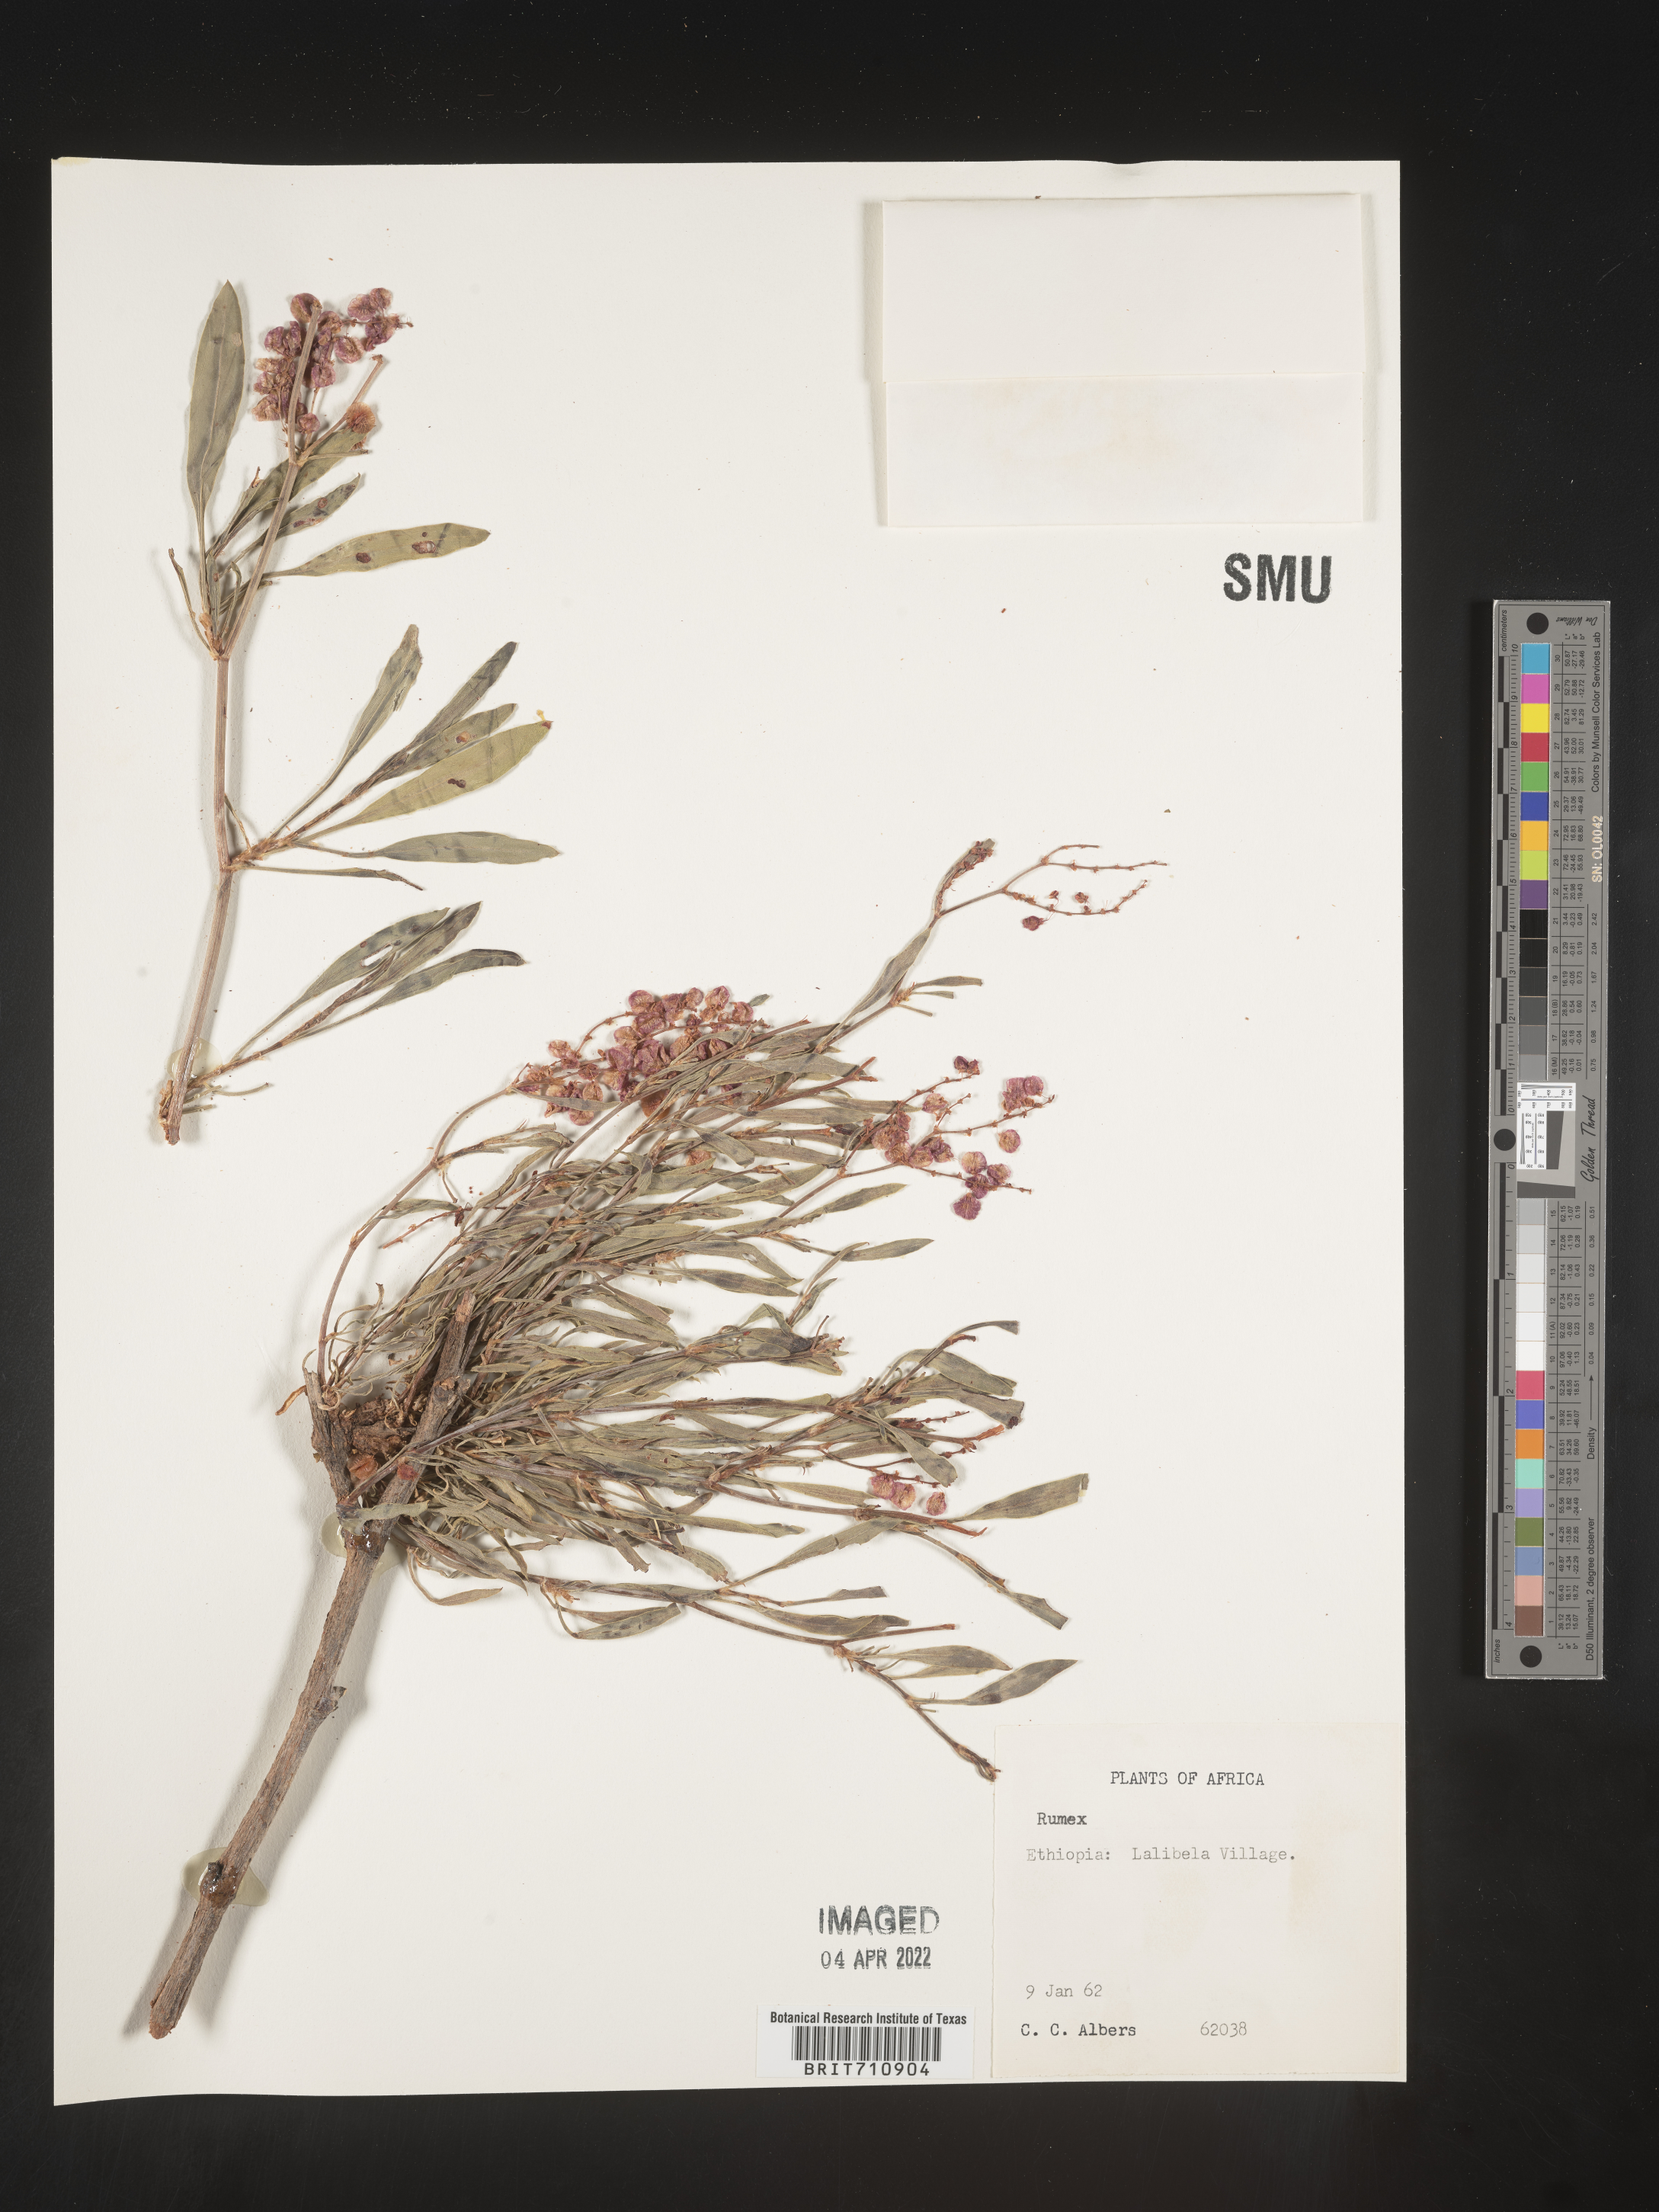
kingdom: Plantae
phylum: Tracheophyta
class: Magnoliopsida
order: Caryophyllales
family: Polygonaceae
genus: Rumex
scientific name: Rumex
